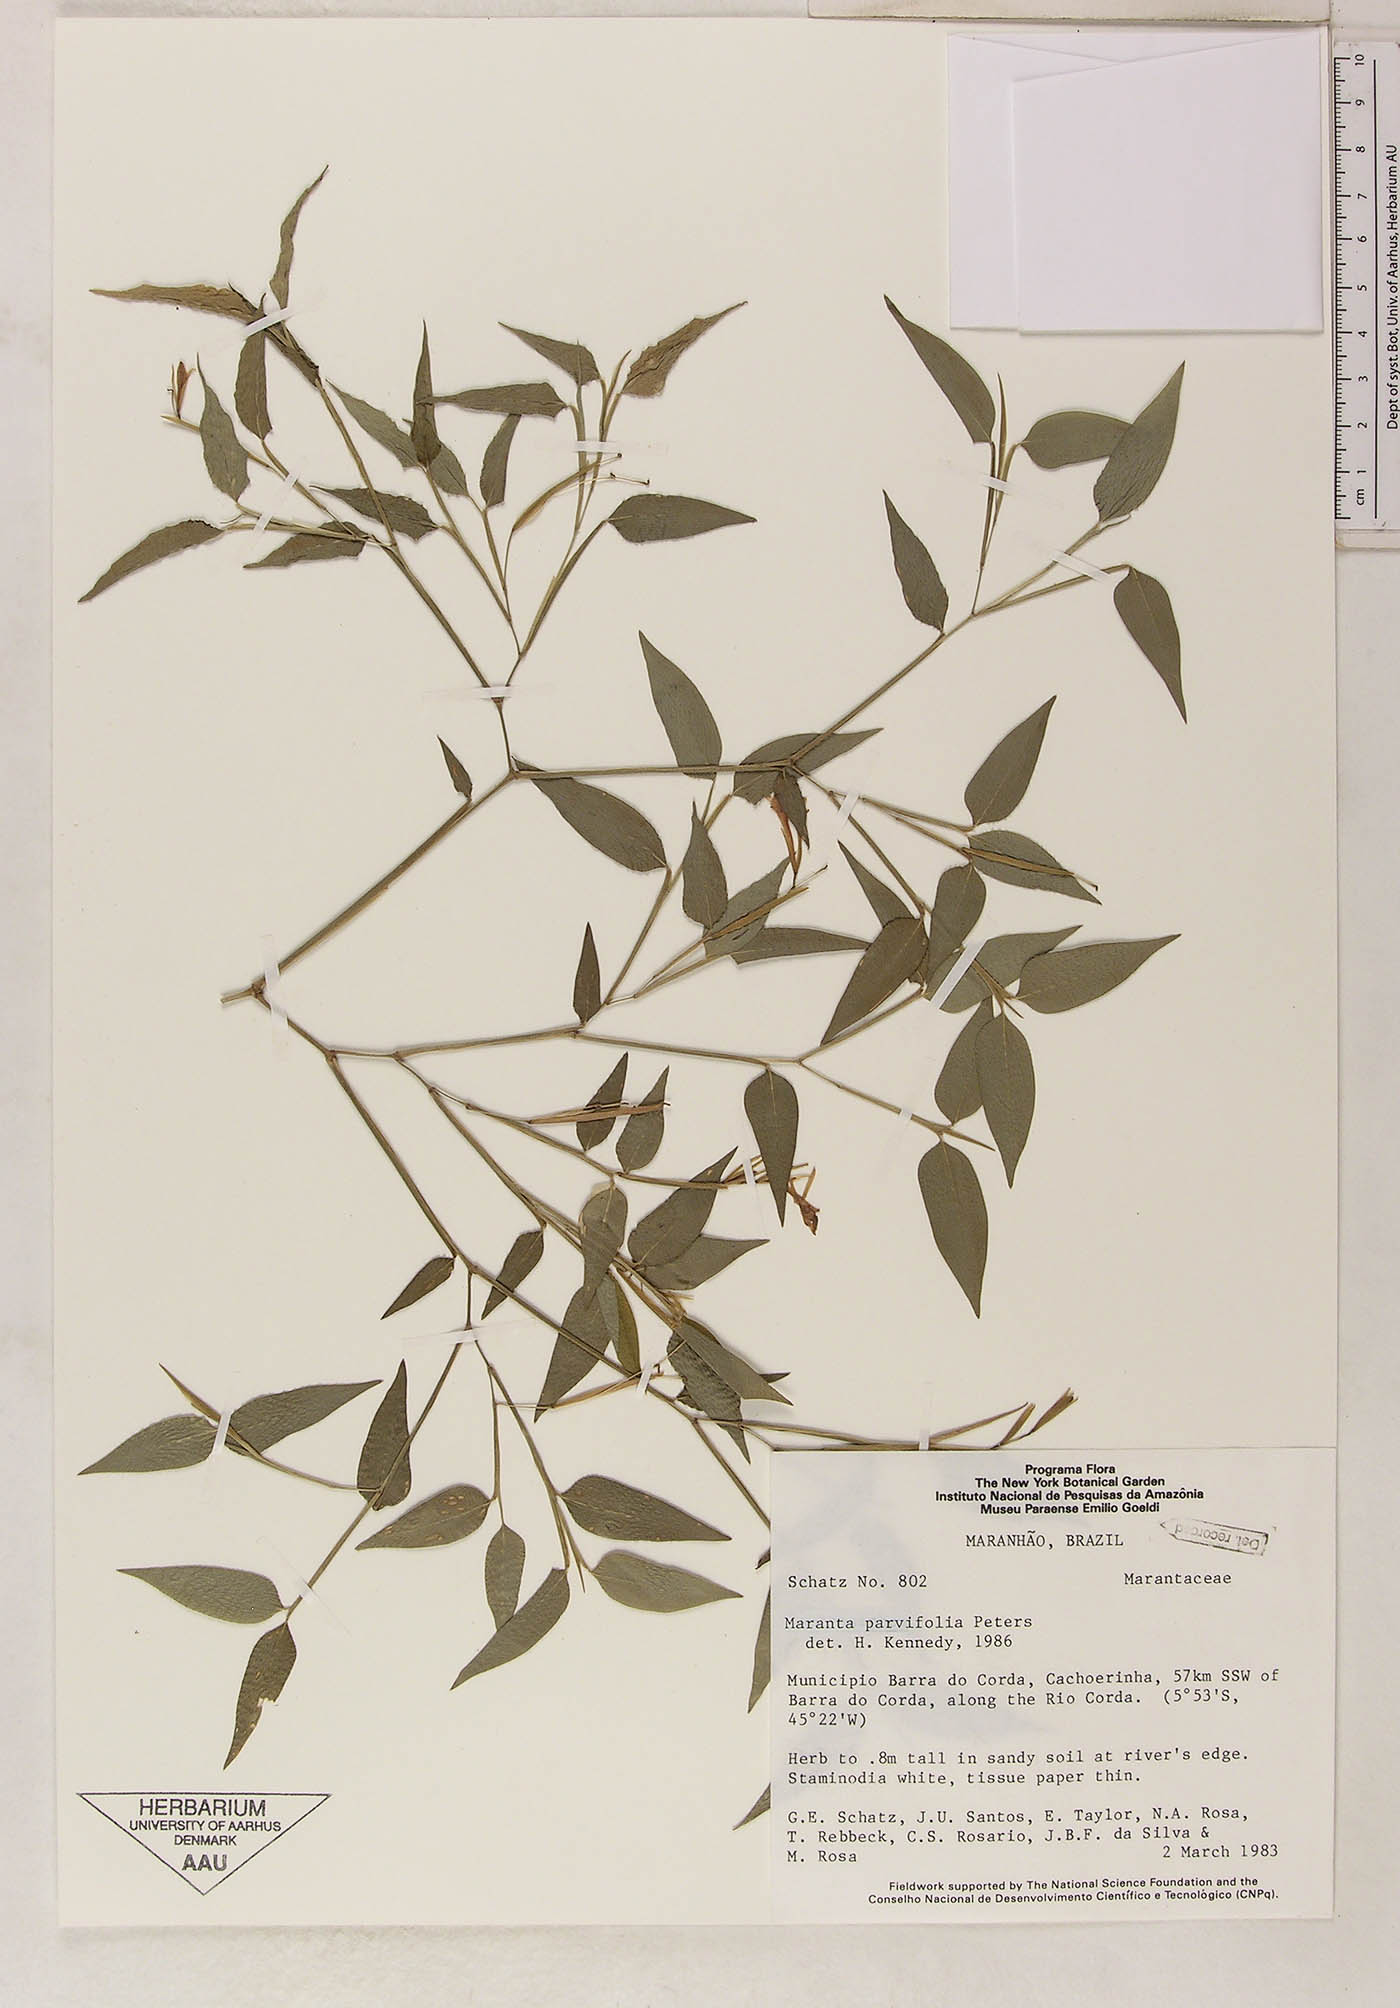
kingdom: Plantae
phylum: Tracheophyta
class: Liliopsida
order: Zingiberales
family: Marantaceae
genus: Maranta
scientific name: Maranta parvifolia
